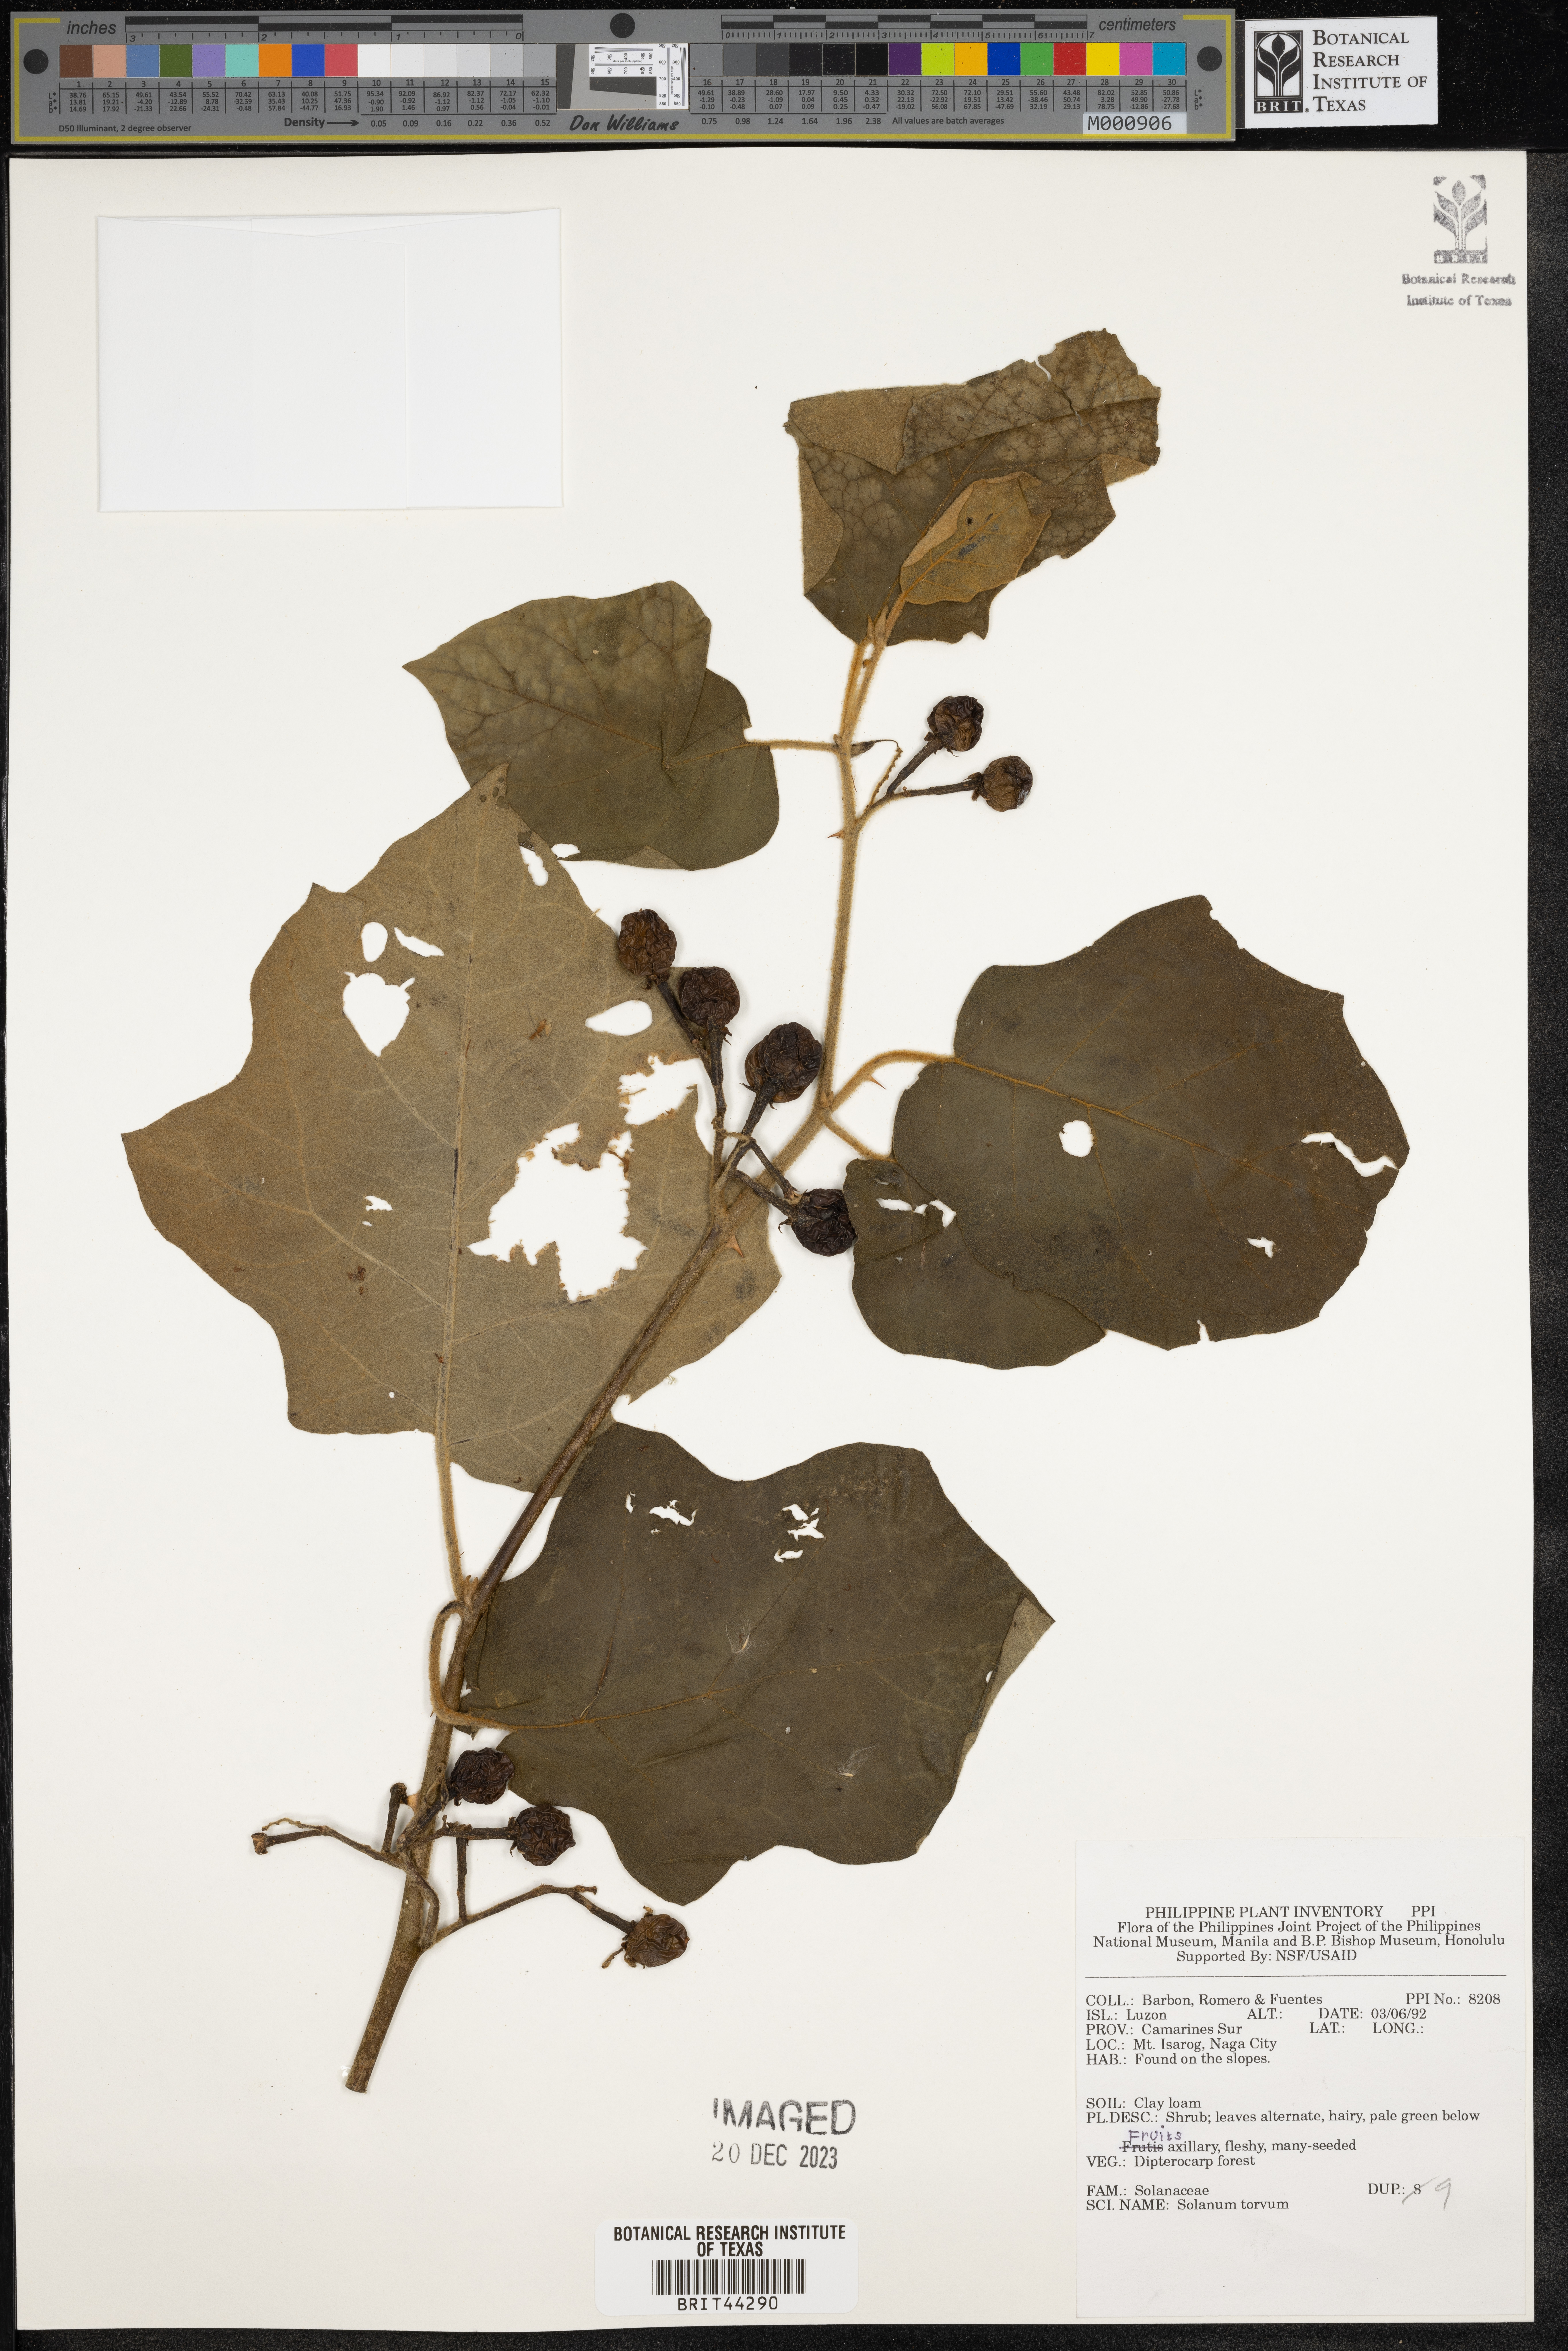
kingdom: Plantae
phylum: Tracheophyta
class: Magnoliopsida
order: Solanales
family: Solanaceae
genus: Solanum
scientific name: Solanum torvum
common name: Turkey berry
